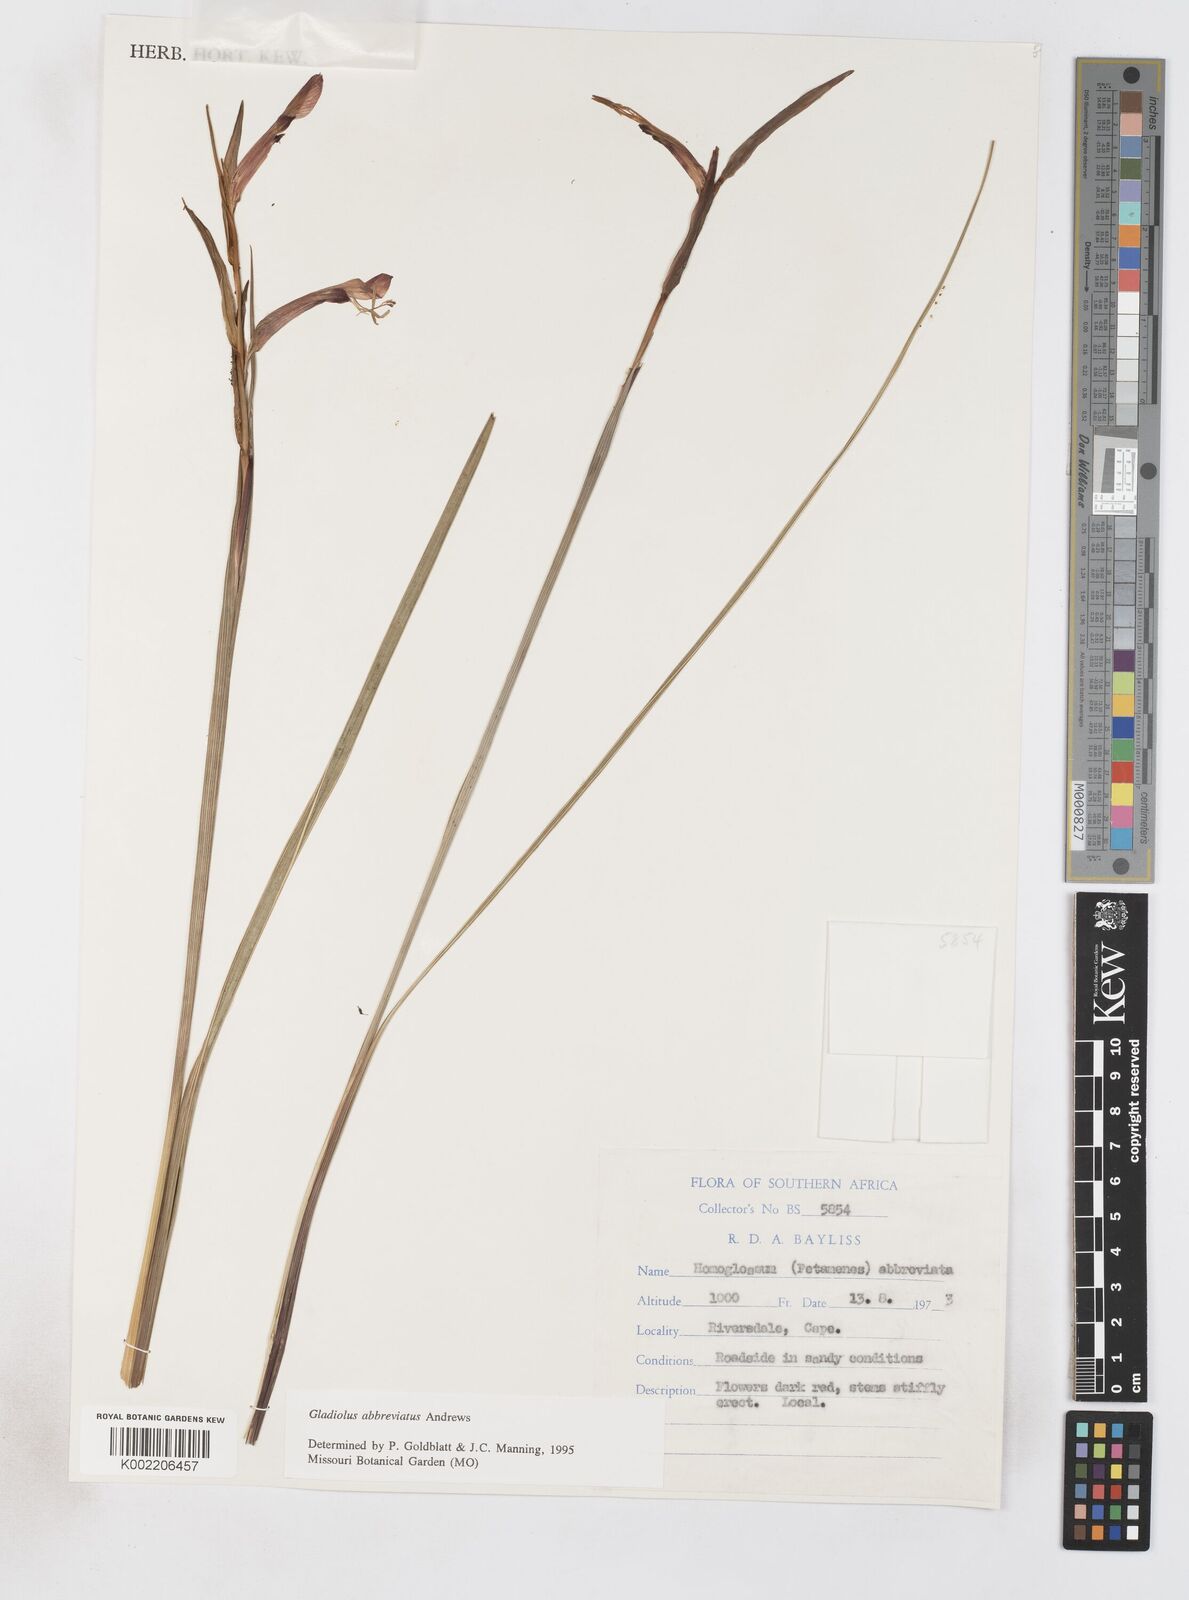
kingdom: Plantae
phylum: Tracheophyta
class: Liliopsida
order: Asparagales
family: Iridaceae
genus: Gladiolus
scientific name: Gladiolus abbreviatus
